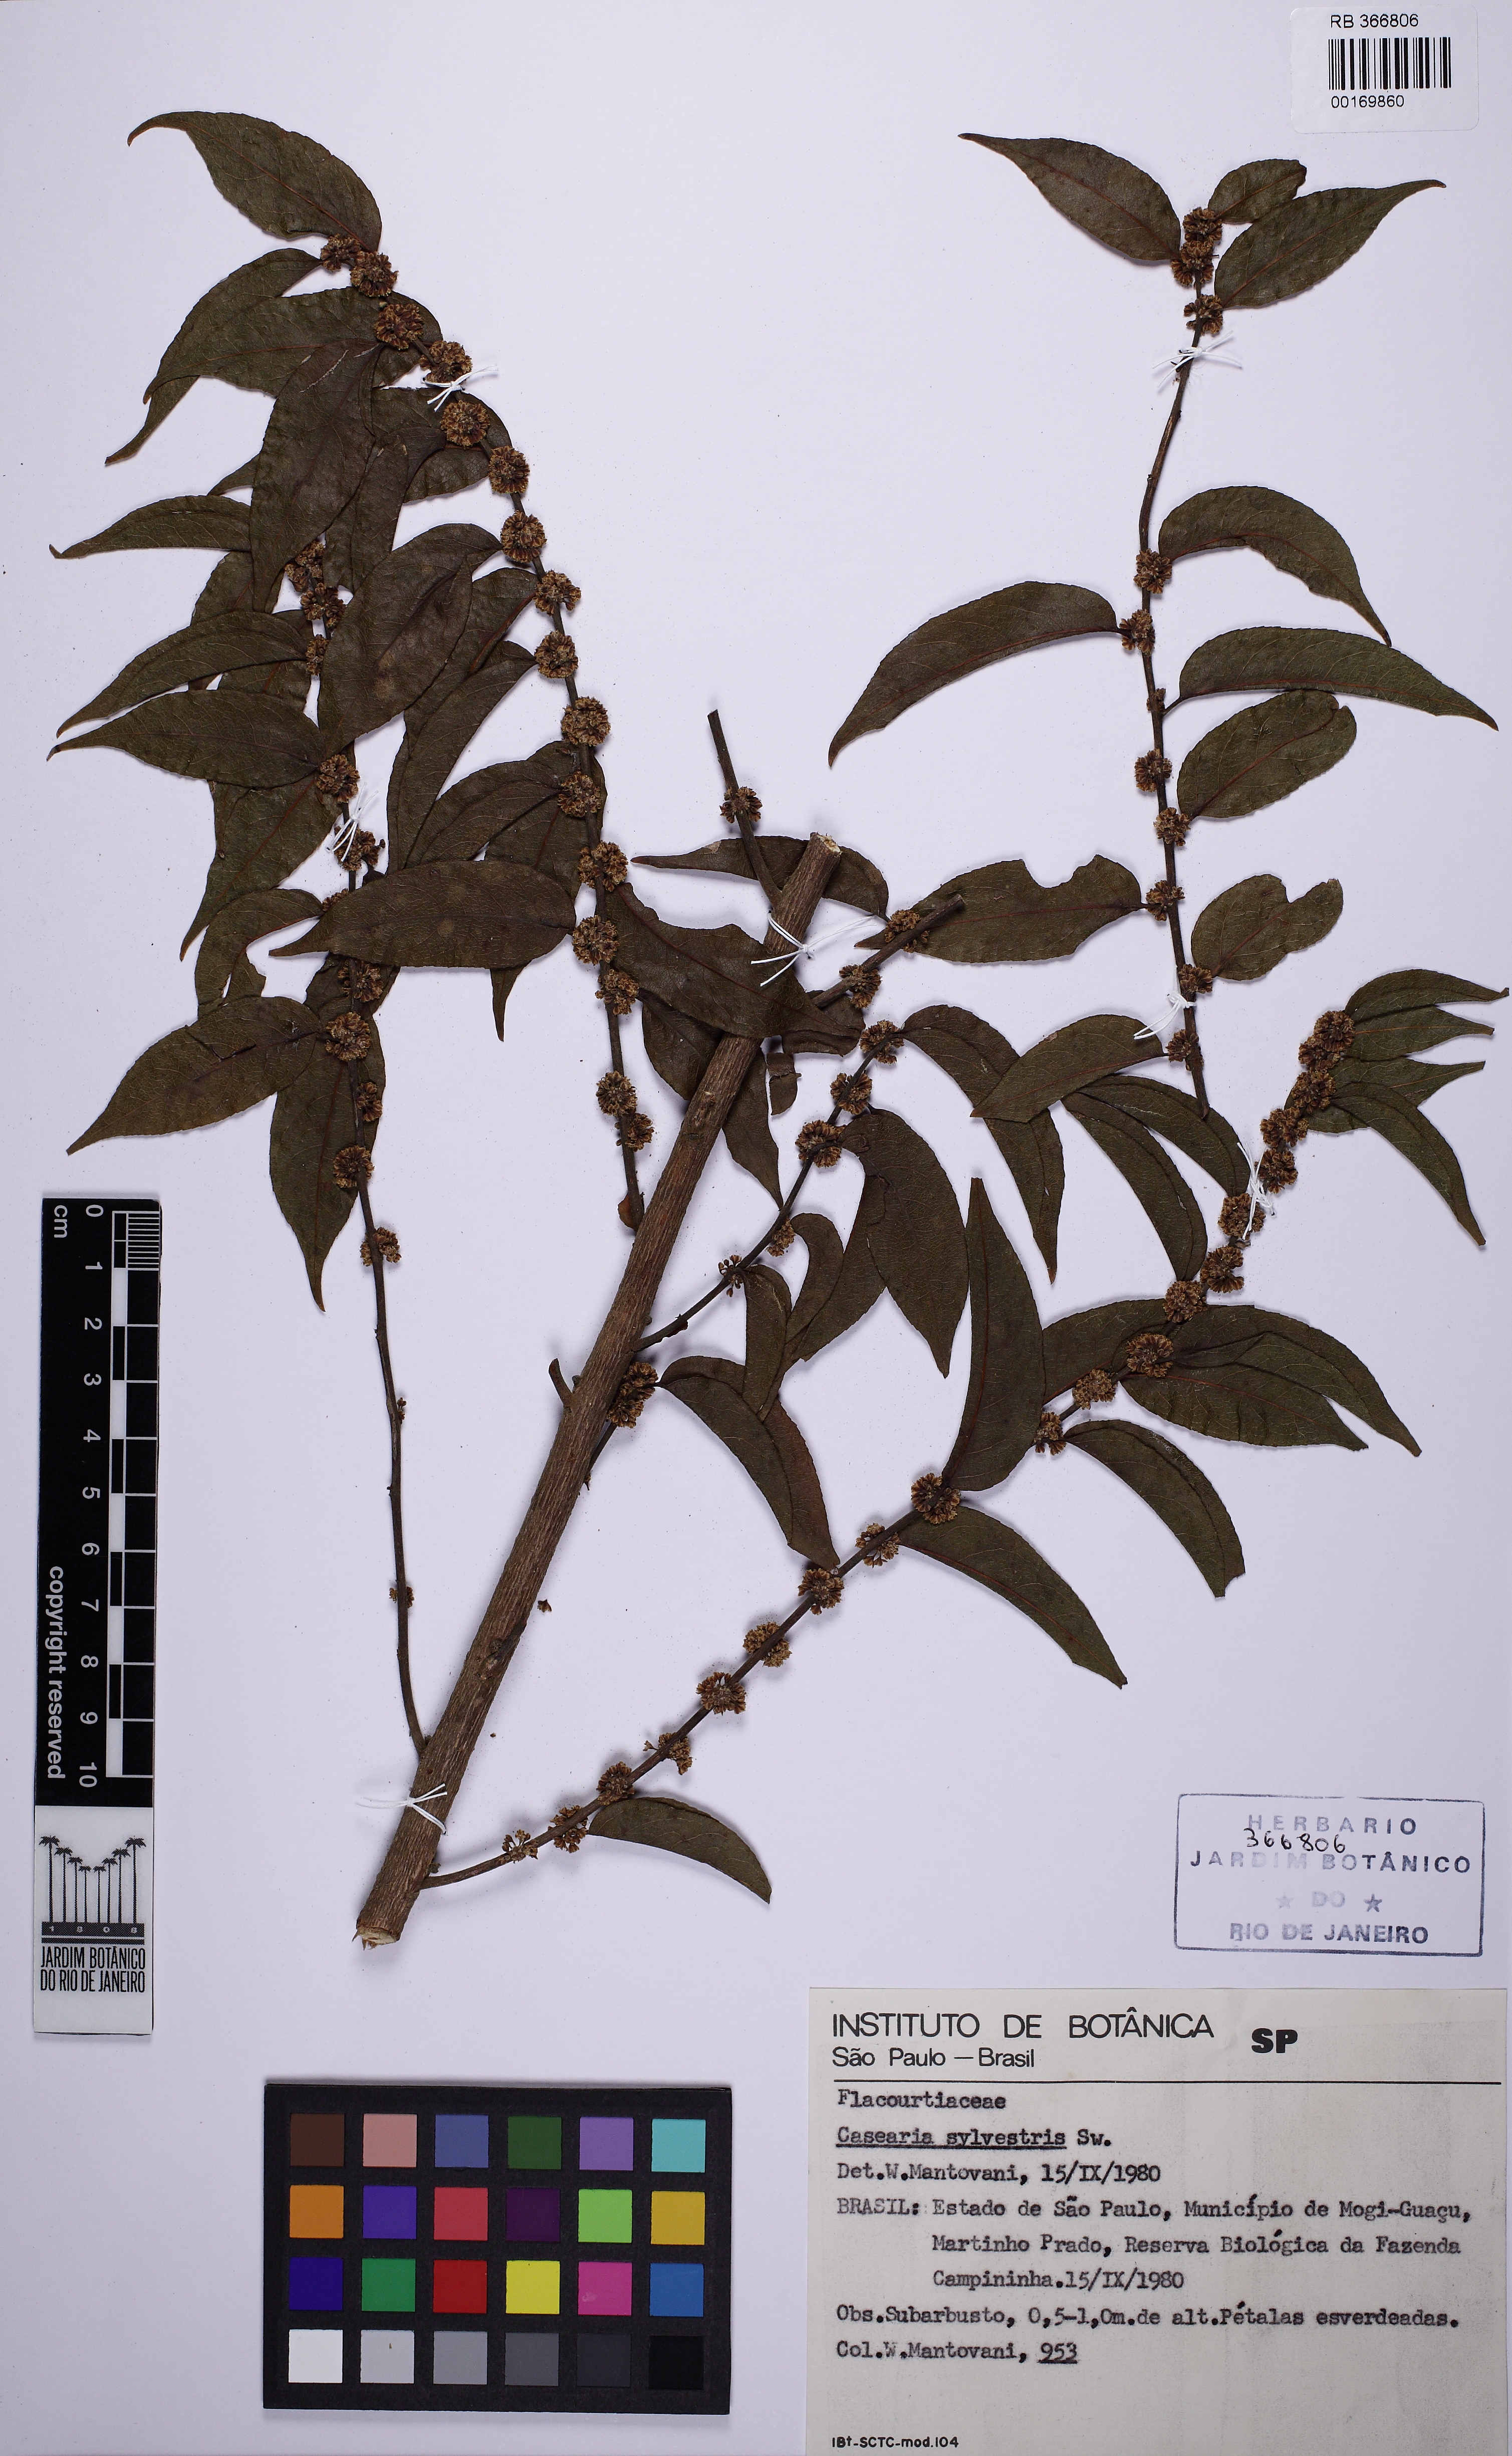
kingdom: Plantae
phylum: Tracheophyta
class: Magnoliopsida
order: Malpighiales
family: Salicaceae
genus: Casearia
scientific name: Casearia sylvestris
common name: Wild sage
